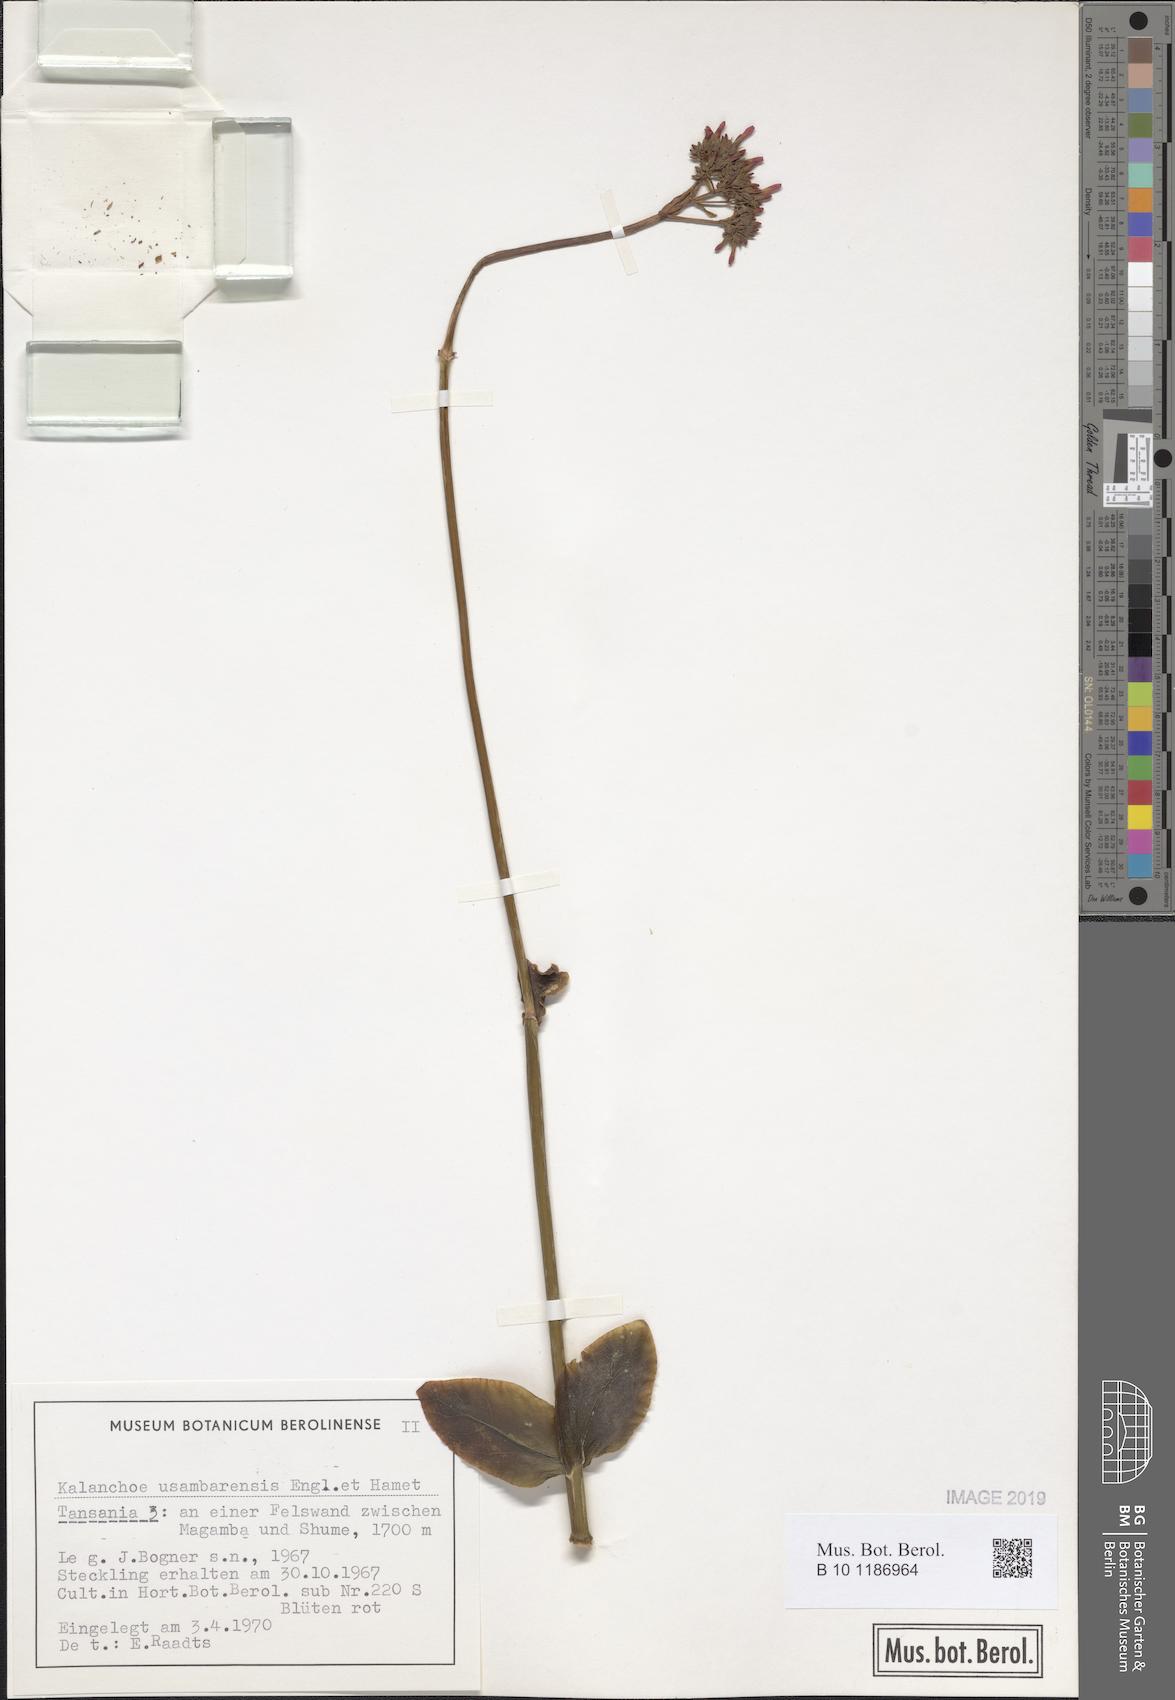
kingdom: Plantae
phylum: Tracheophyta
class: Magnoliopsida
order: Saxifragales
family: Crassulaceae
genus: Kalanchoe
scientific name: Kalanchoe usambarensis
